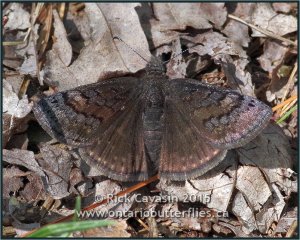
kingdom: Animalia
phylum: Arthropoda
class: Insecta
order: Lepidoptera
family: Hesperiidae
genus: Erynnis
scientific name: Erynnis brizo
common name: Sleepy Duskywing
